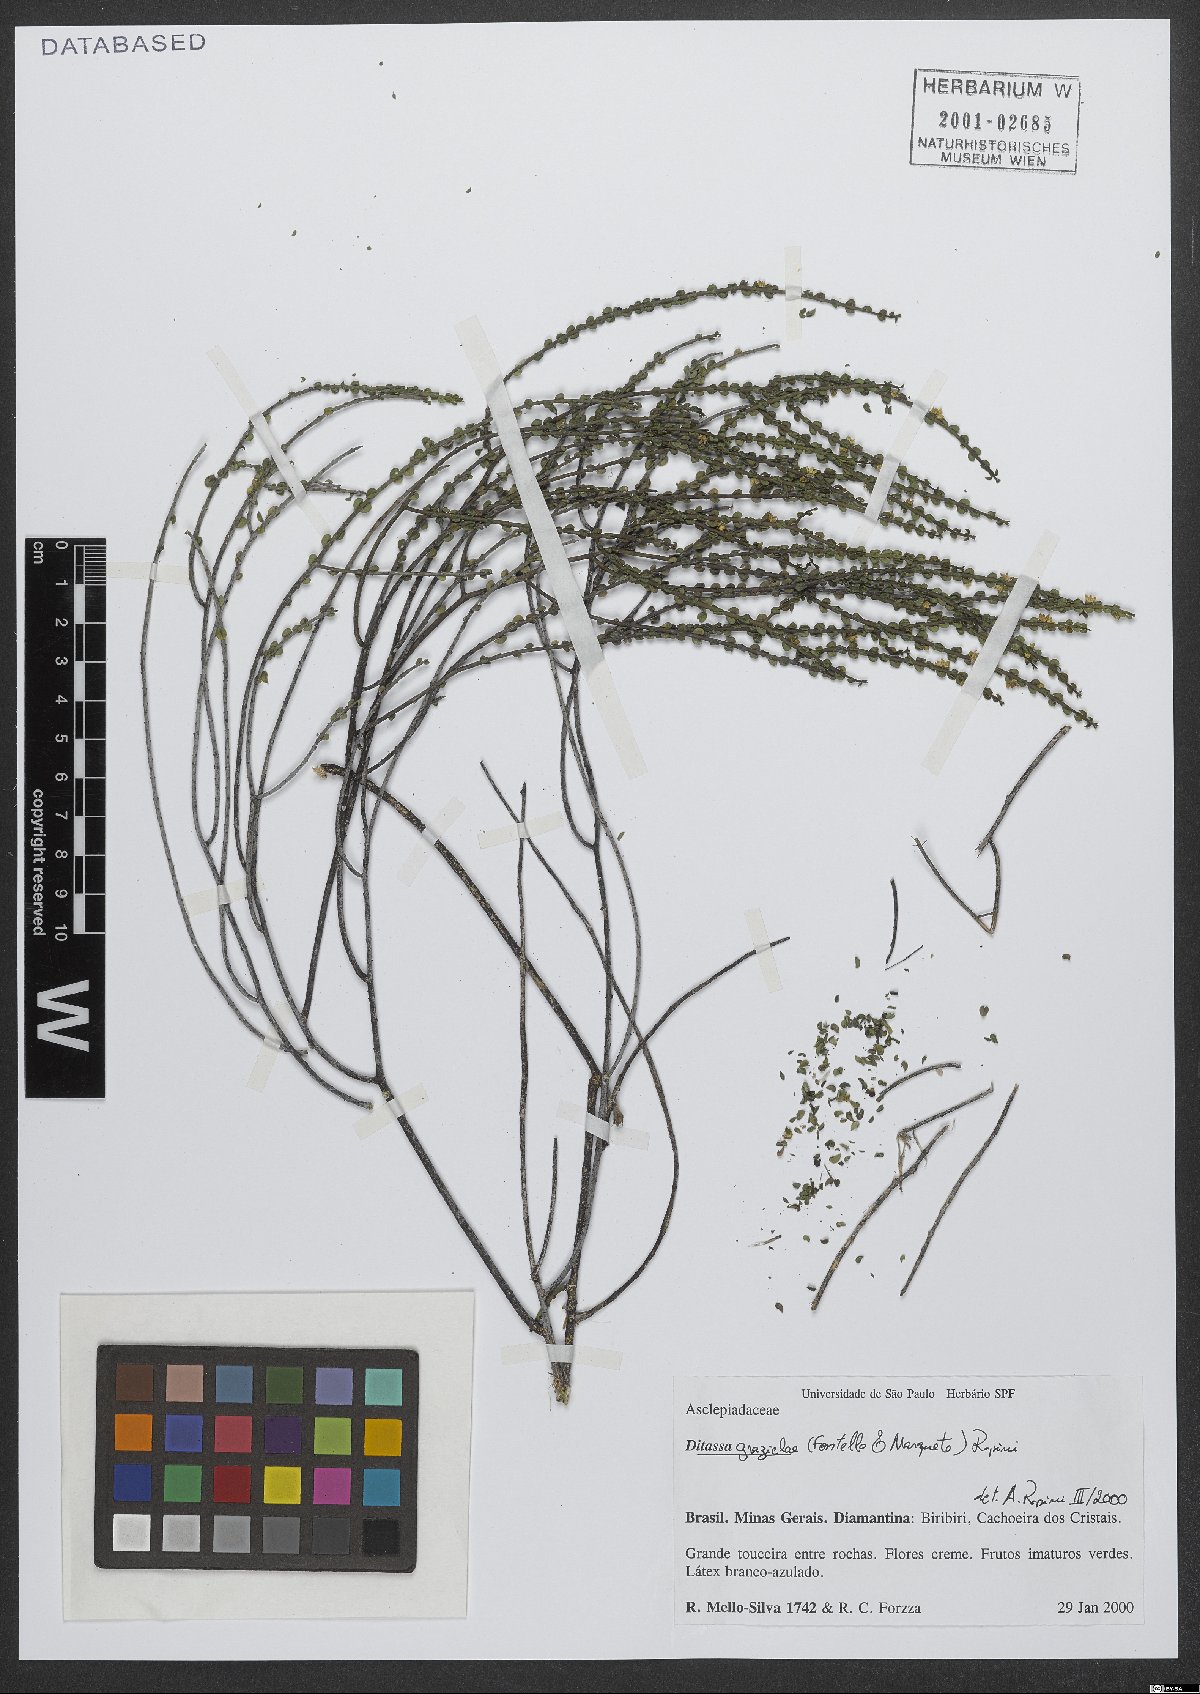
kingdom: Plantae
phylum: Tracheophyta
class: Magnoliopsida
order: Gentianales
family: Apocynaceae
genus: Minaria
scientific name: Minaria grazielae
